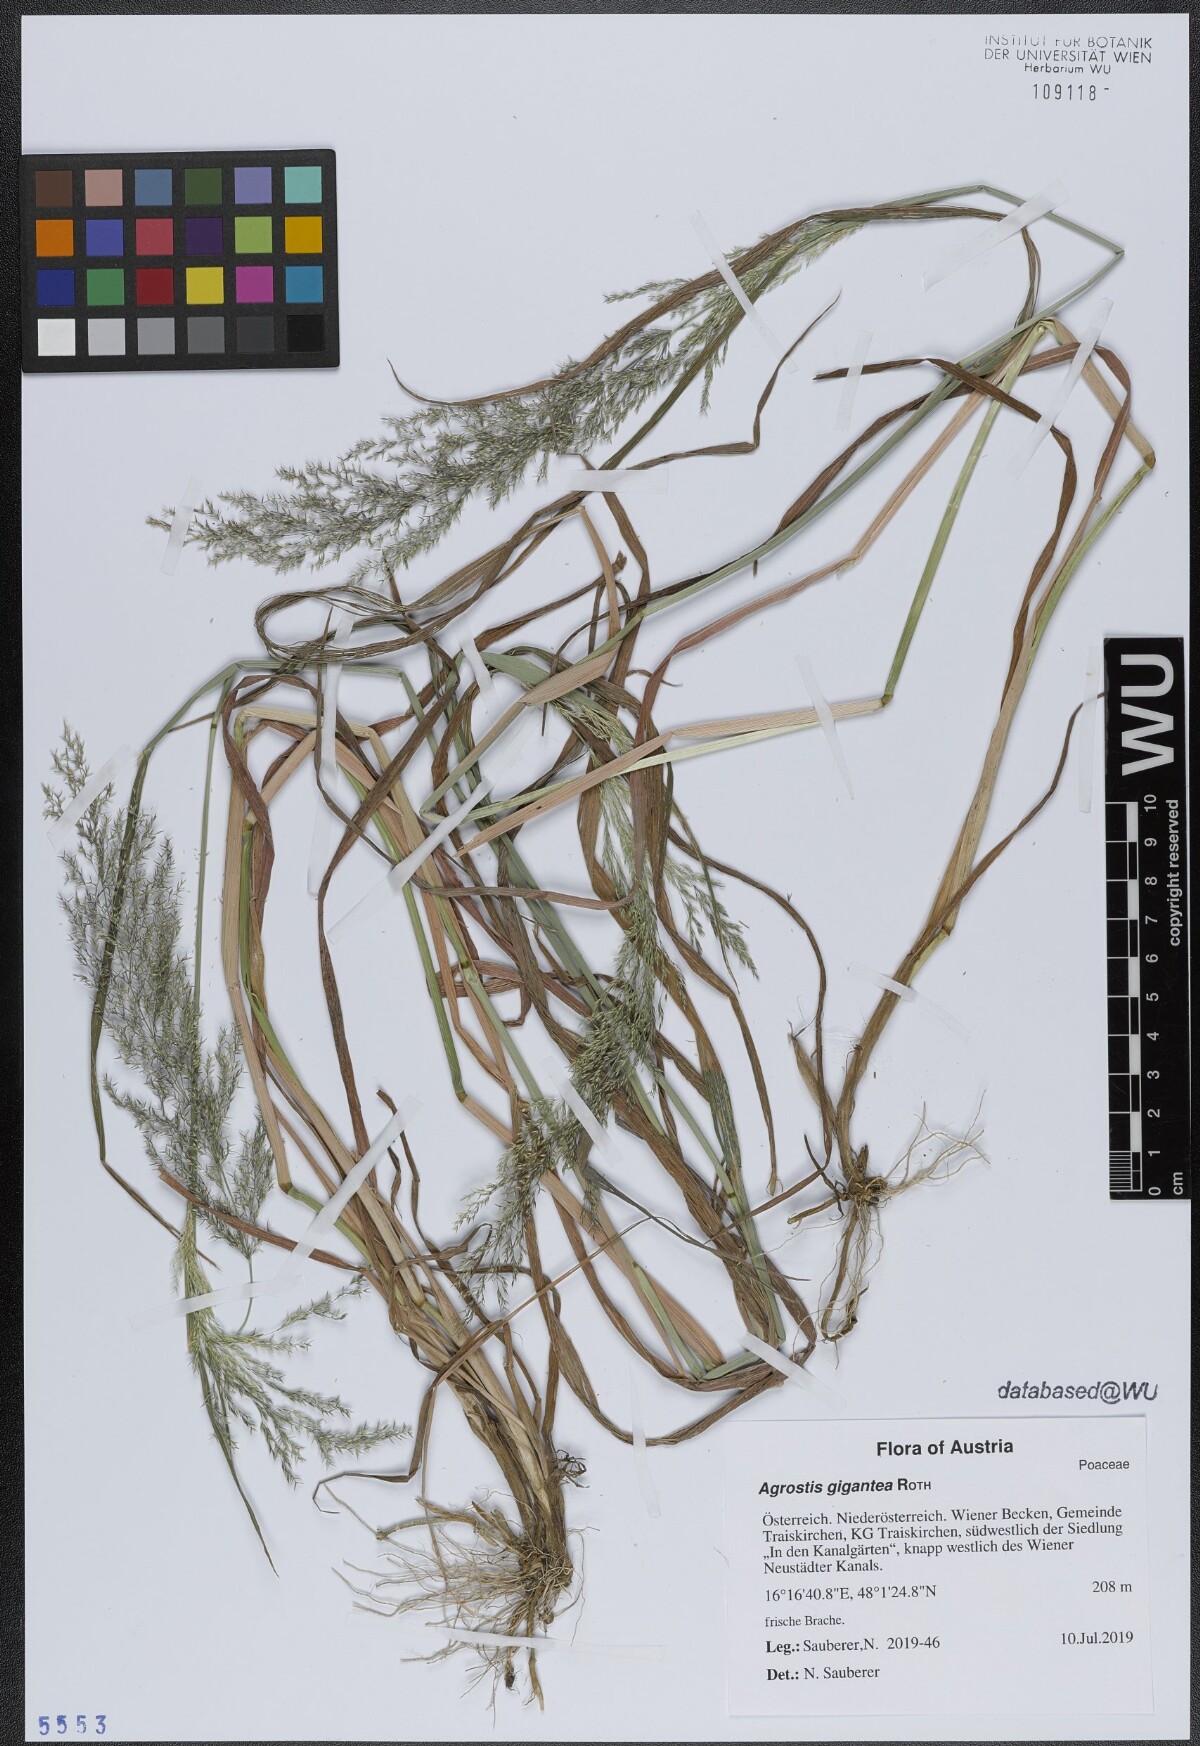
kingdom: Plantae
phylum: Tracheophyta
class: Liliopsida
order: Poales
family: Poaceae
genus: Agrostis
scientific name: Agrostis gigantea
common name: Black bent
